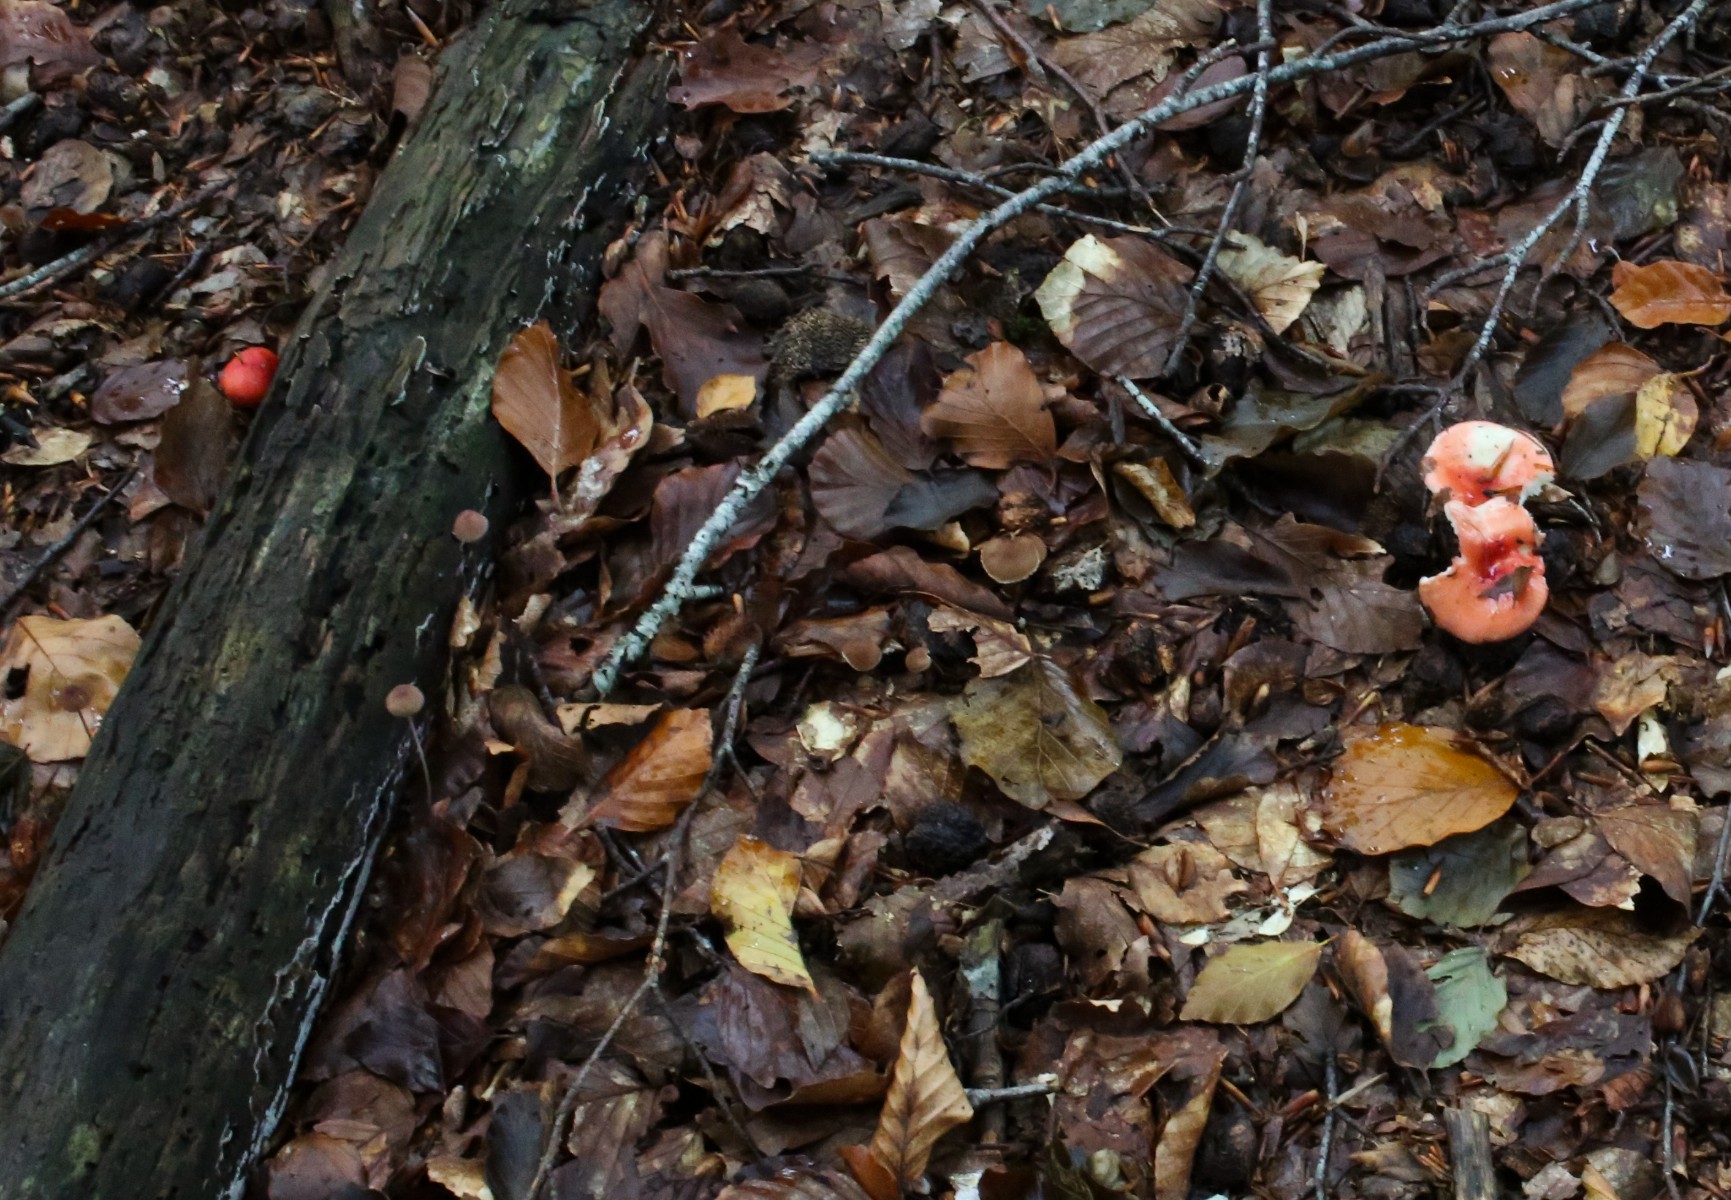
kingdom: Fungi
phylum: Basidiomycota
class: Agaricomycetes
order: Russulales
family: Russulaceae
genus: Russula
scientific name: Russula
